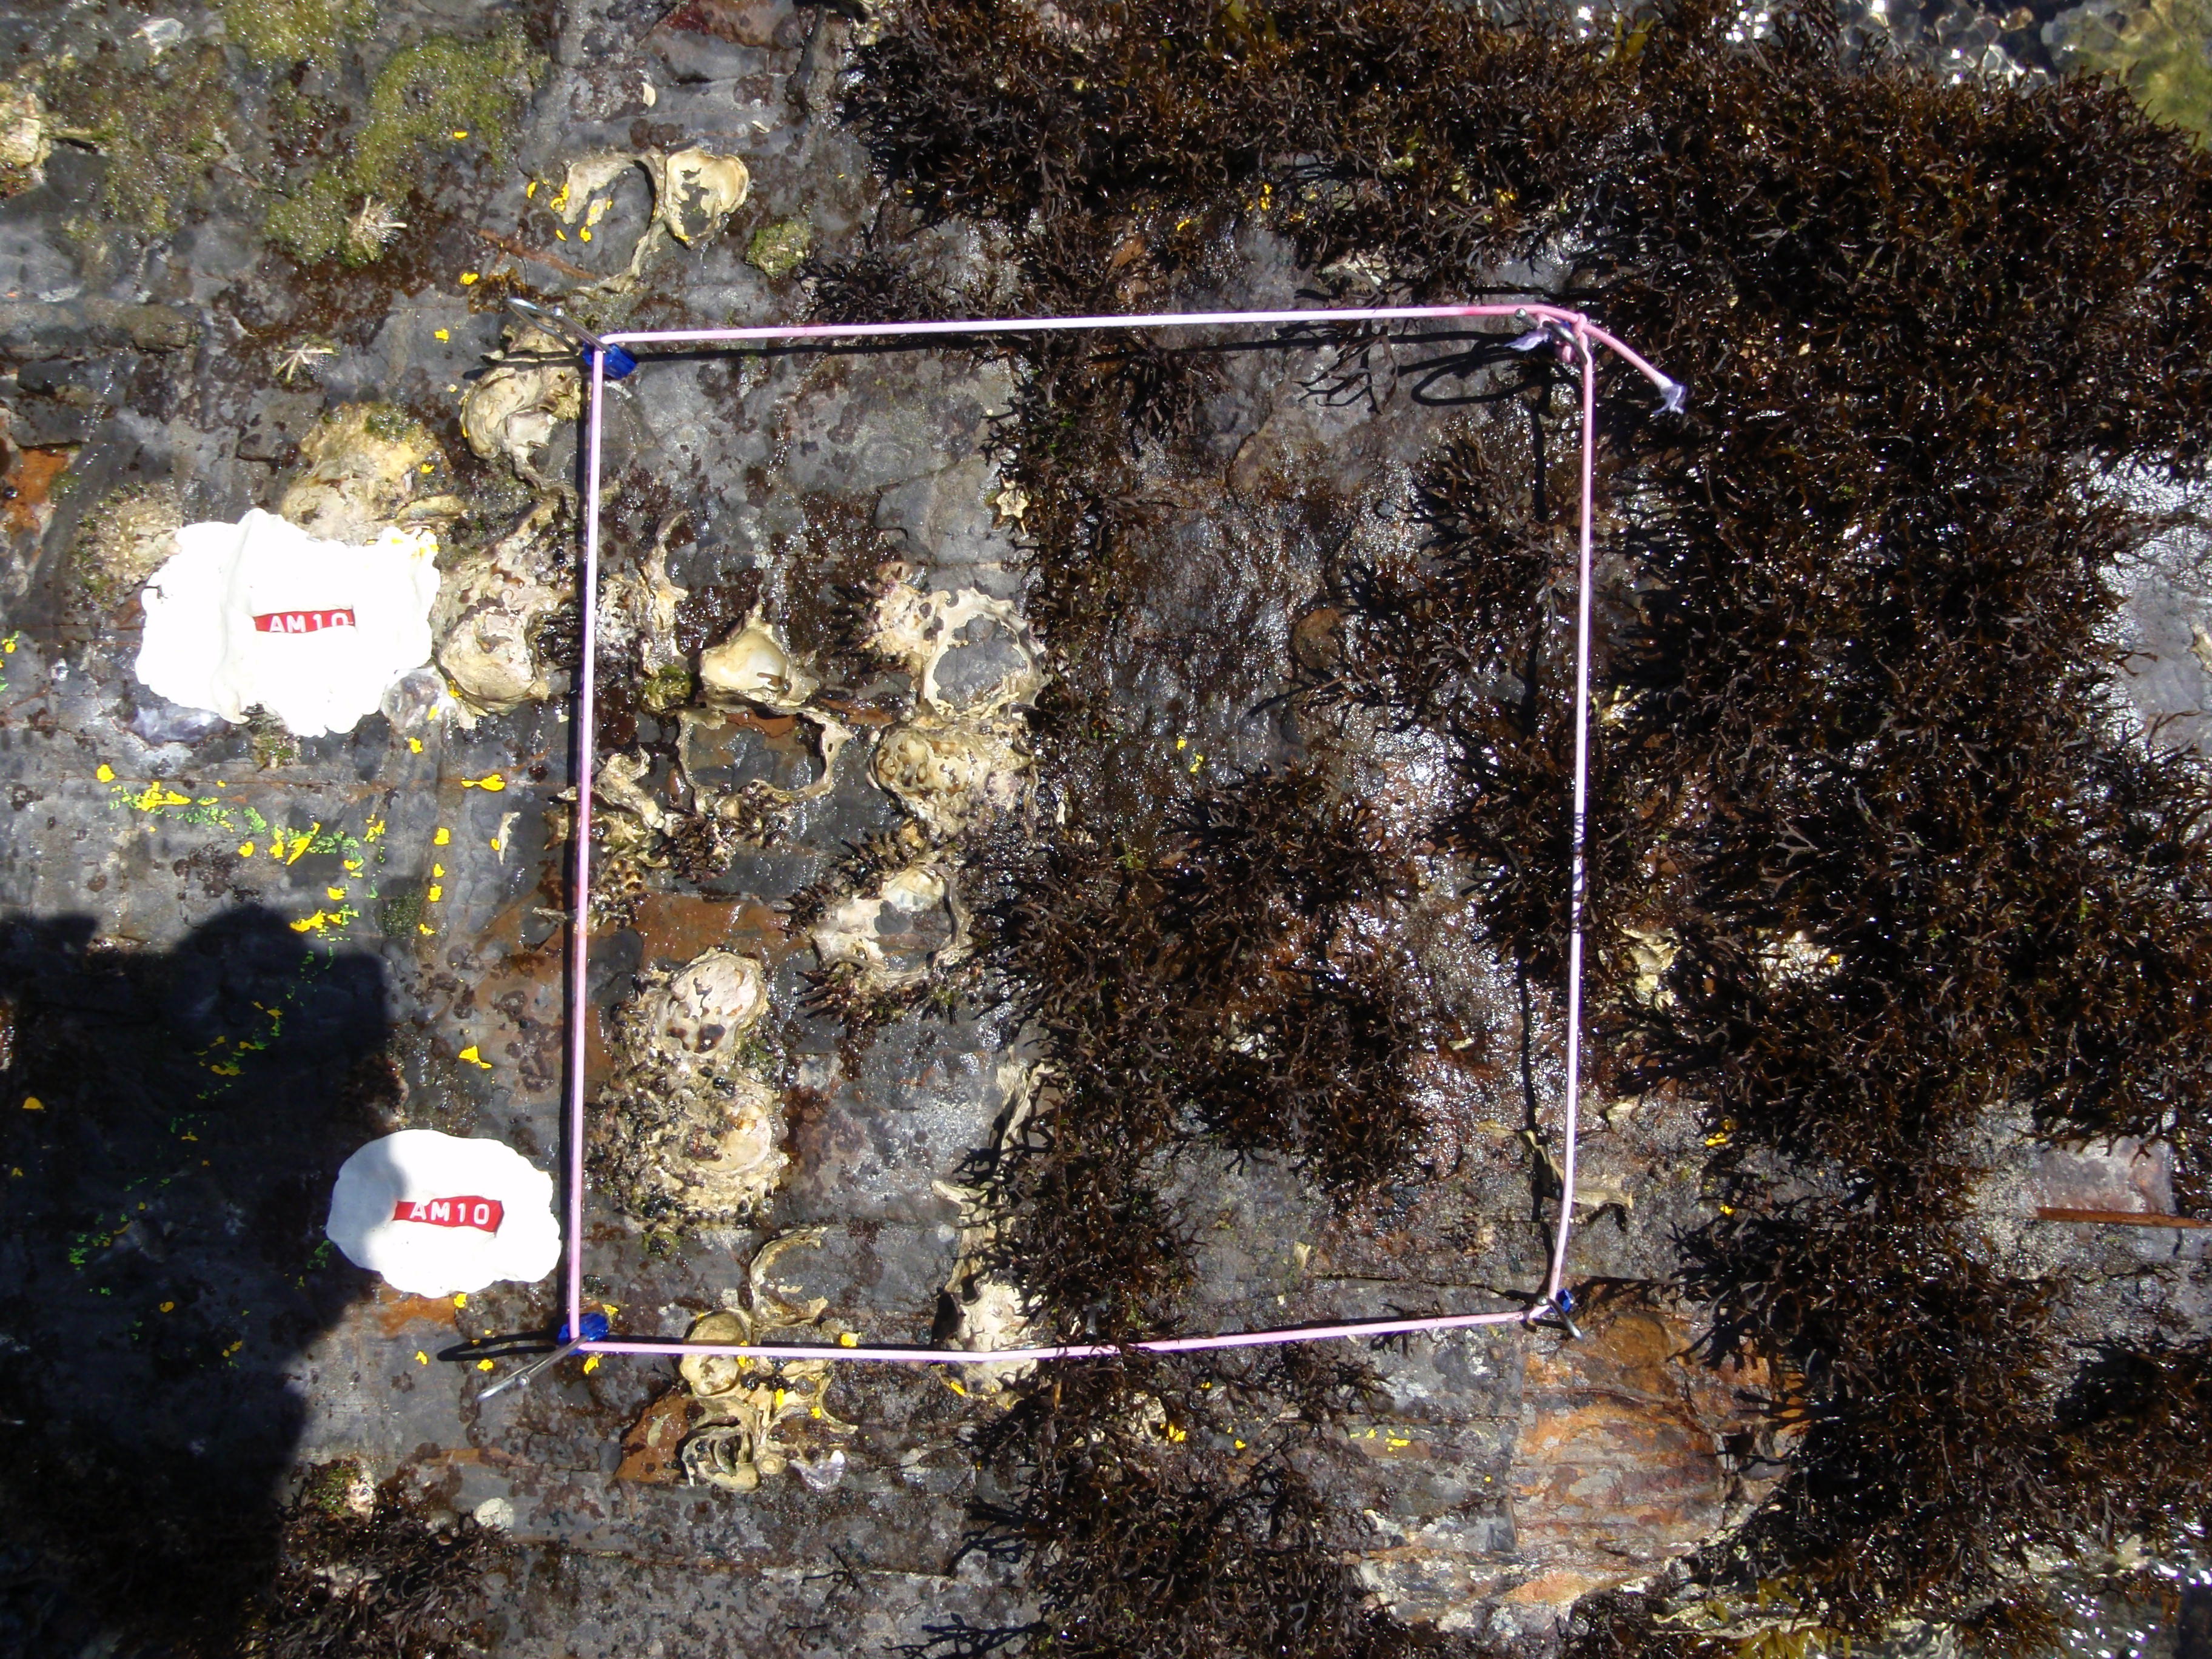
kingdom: Chromista
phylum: Ochrophyta
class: Phaeophyceae
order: Ishigeales
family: Ishigeaceae
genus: Ishige
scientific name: Ishige okamurae
